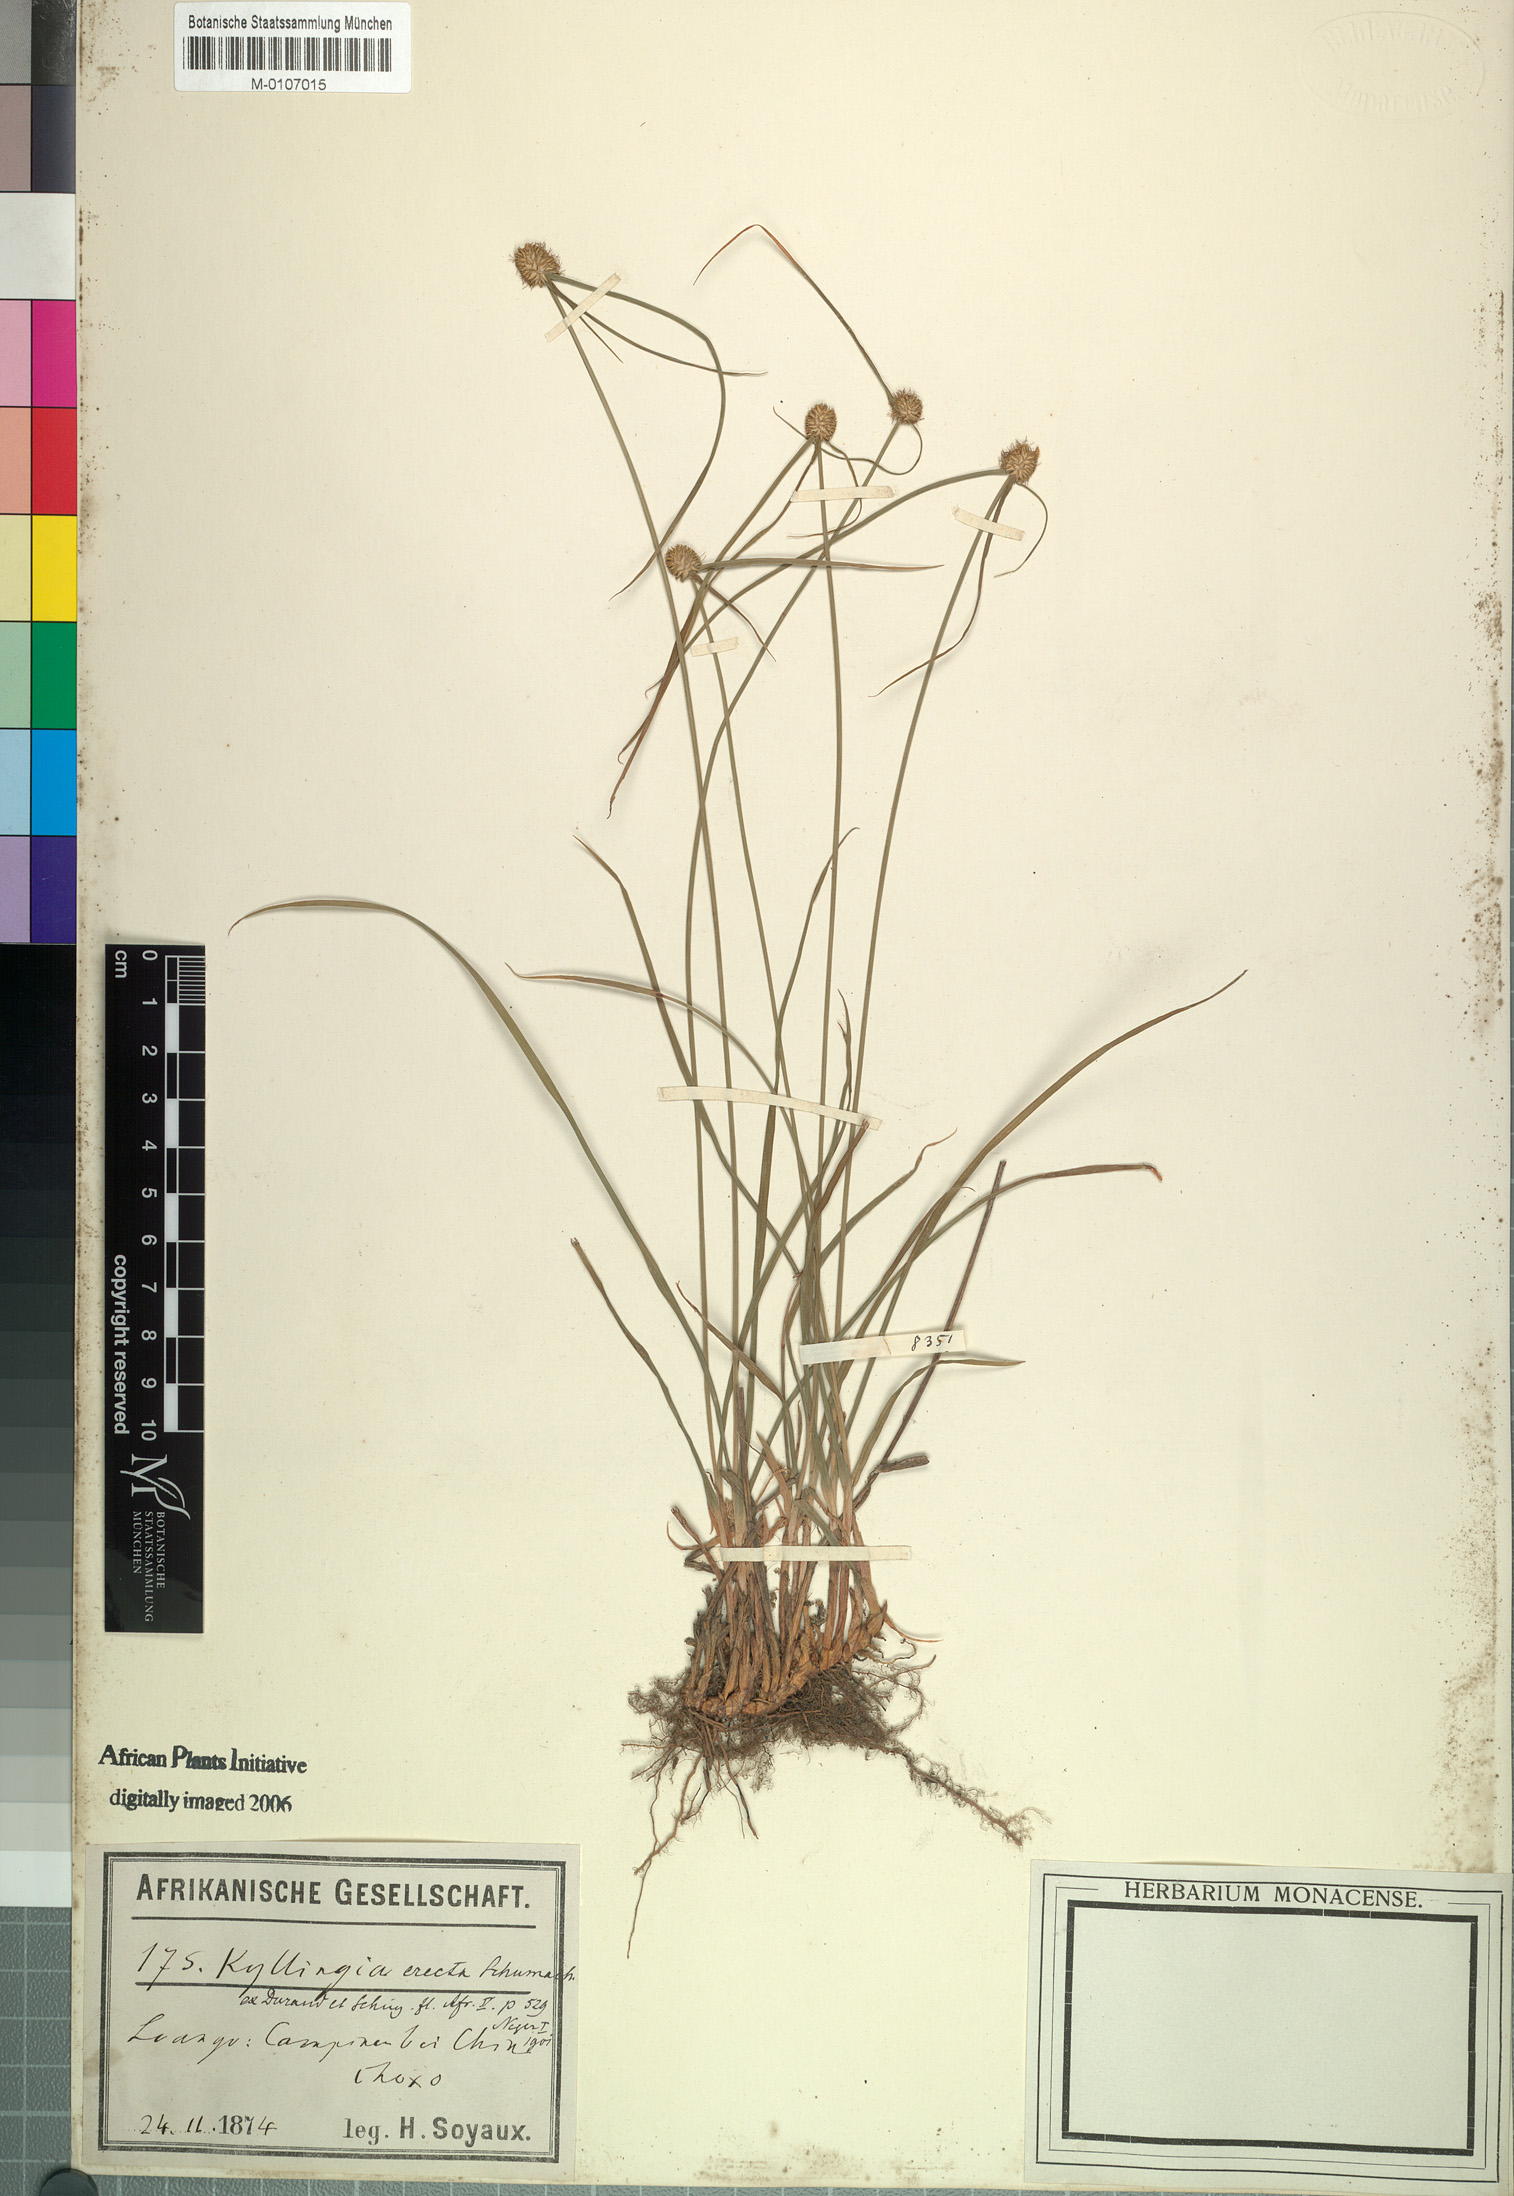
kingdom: Plantae
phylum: Tracheophyta
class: Liliopsida
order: Poales
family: Cyperaceae
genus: Cyperus
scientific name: Cyperus erectus
